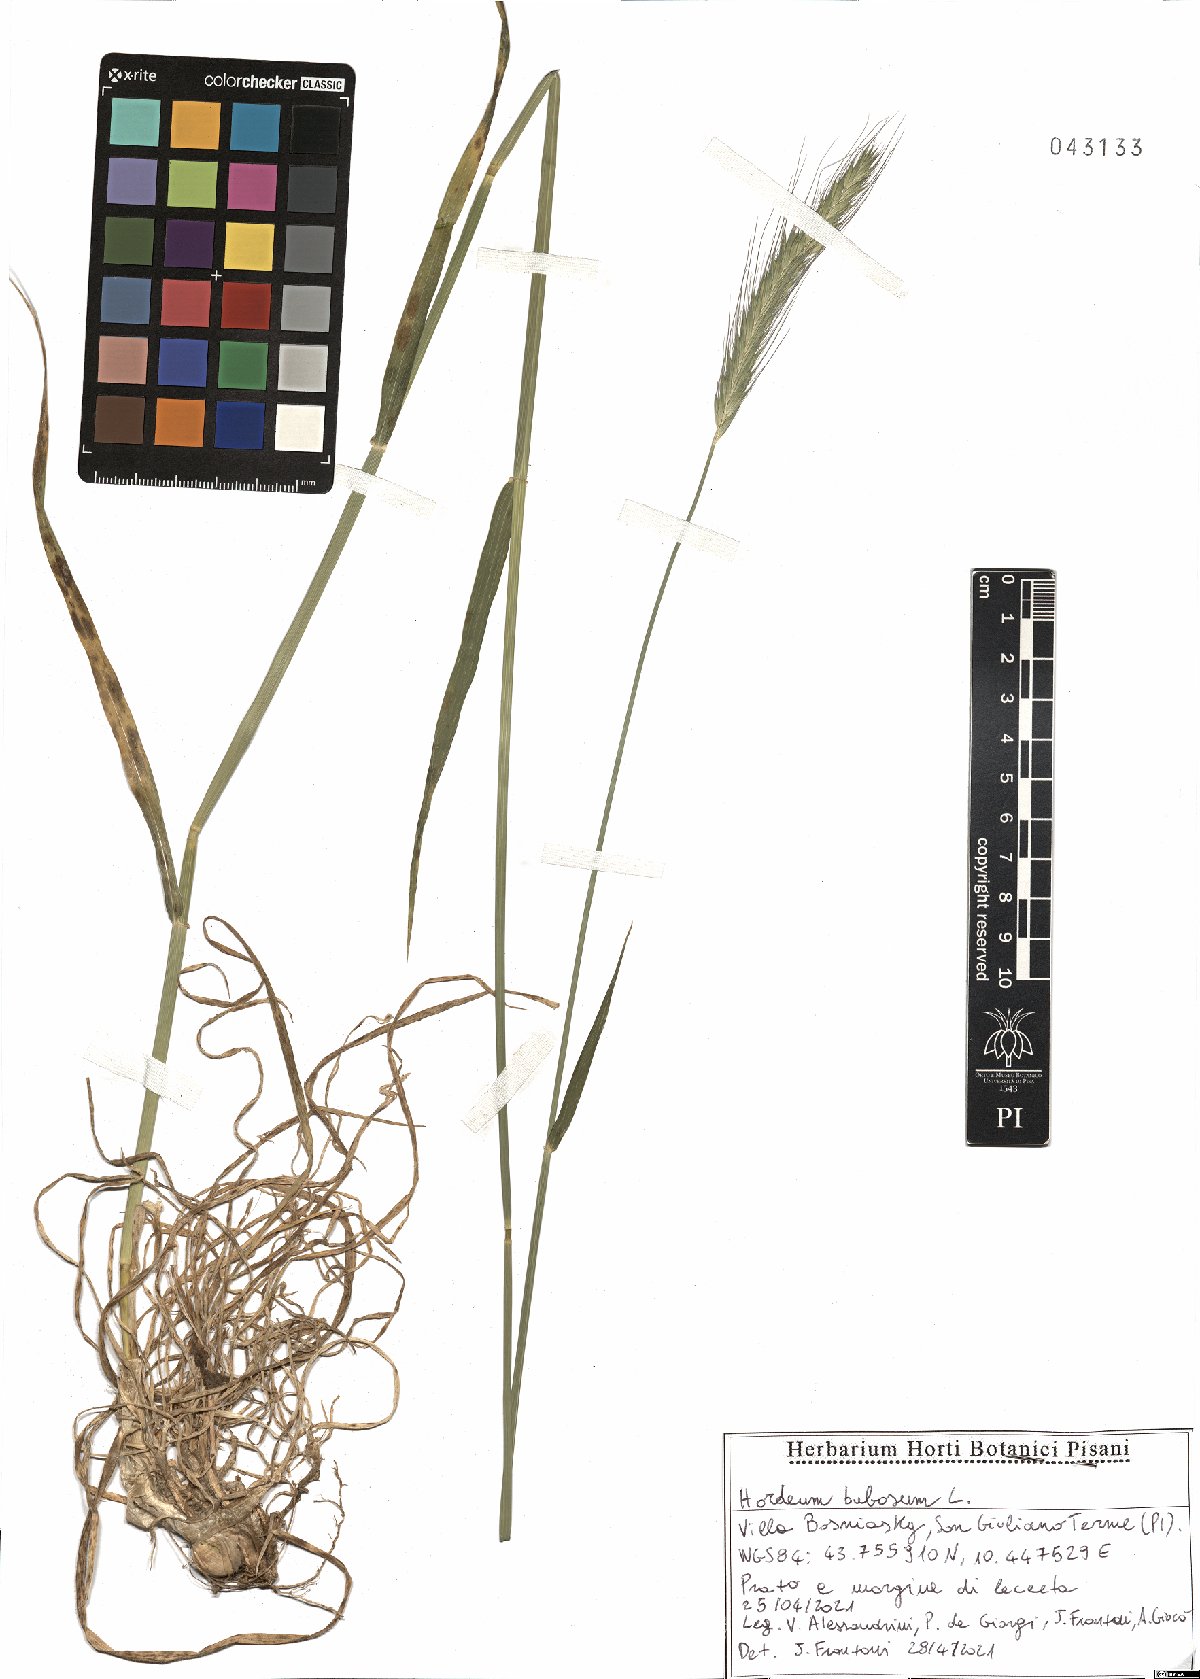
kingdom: Plantae
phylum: Tracheophyta
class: Liliopsida
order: Poales
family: Poaceae
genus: Hordeum
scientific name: Hordeum bulbosum
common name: Bulbous barley
